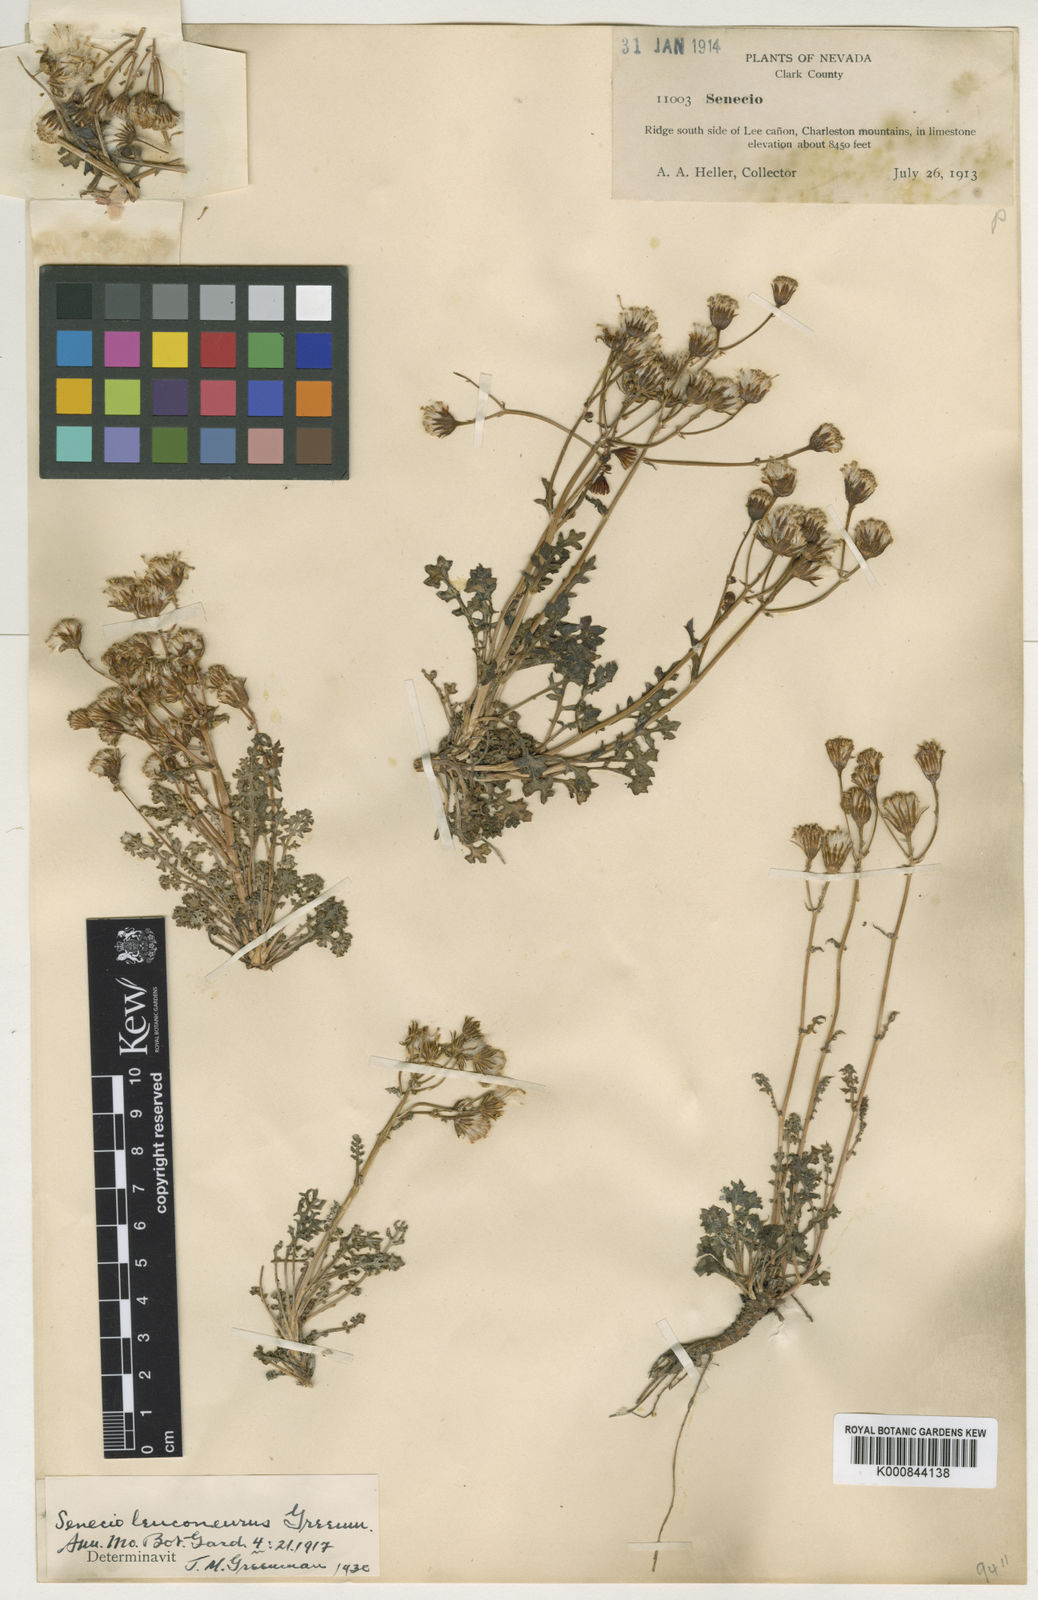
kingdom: Plantae
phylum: Tracheophyta
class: Magnoliopsida
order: Asterales
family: Asteraceae
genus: Packera
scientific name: Packera
